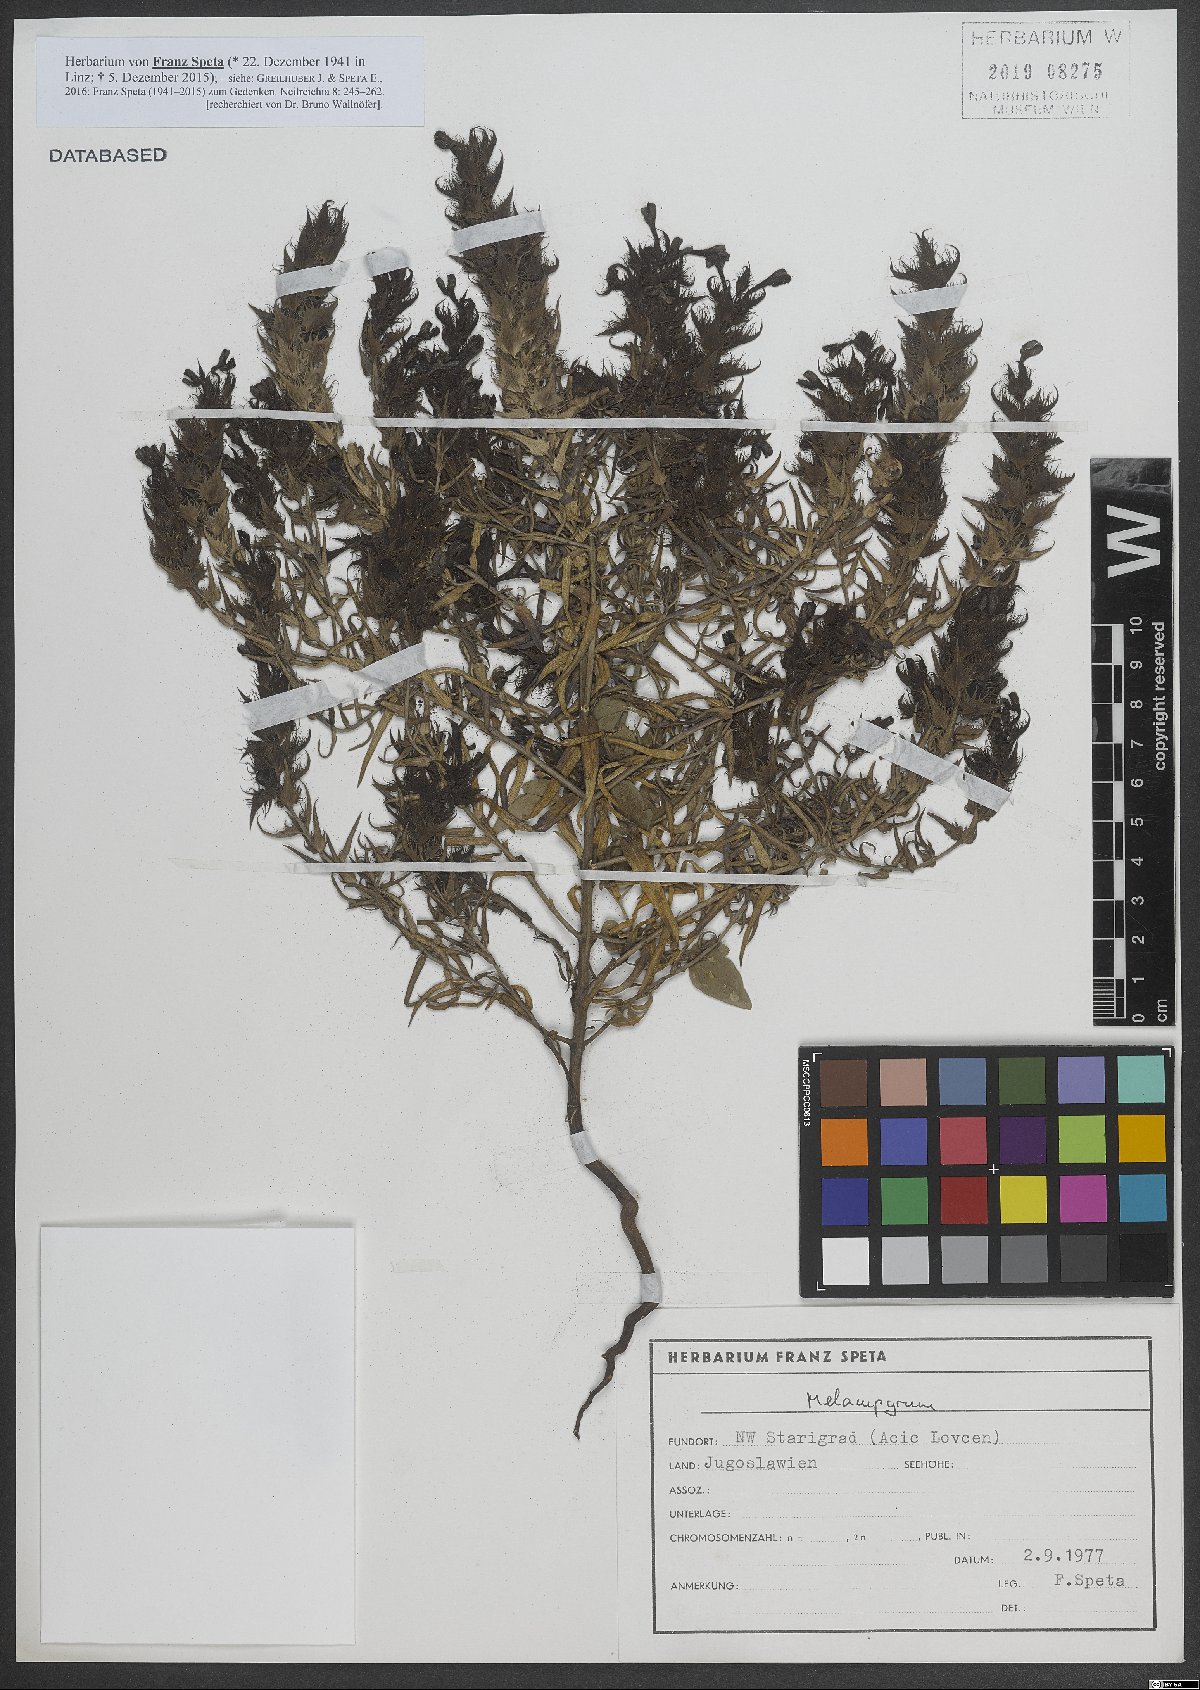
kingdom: Plantae
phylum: Tracheophyta
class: Magnoliopsida
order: Lamiales
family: Orobanchaceae
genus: Melampyrum
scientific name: Melampyrum
